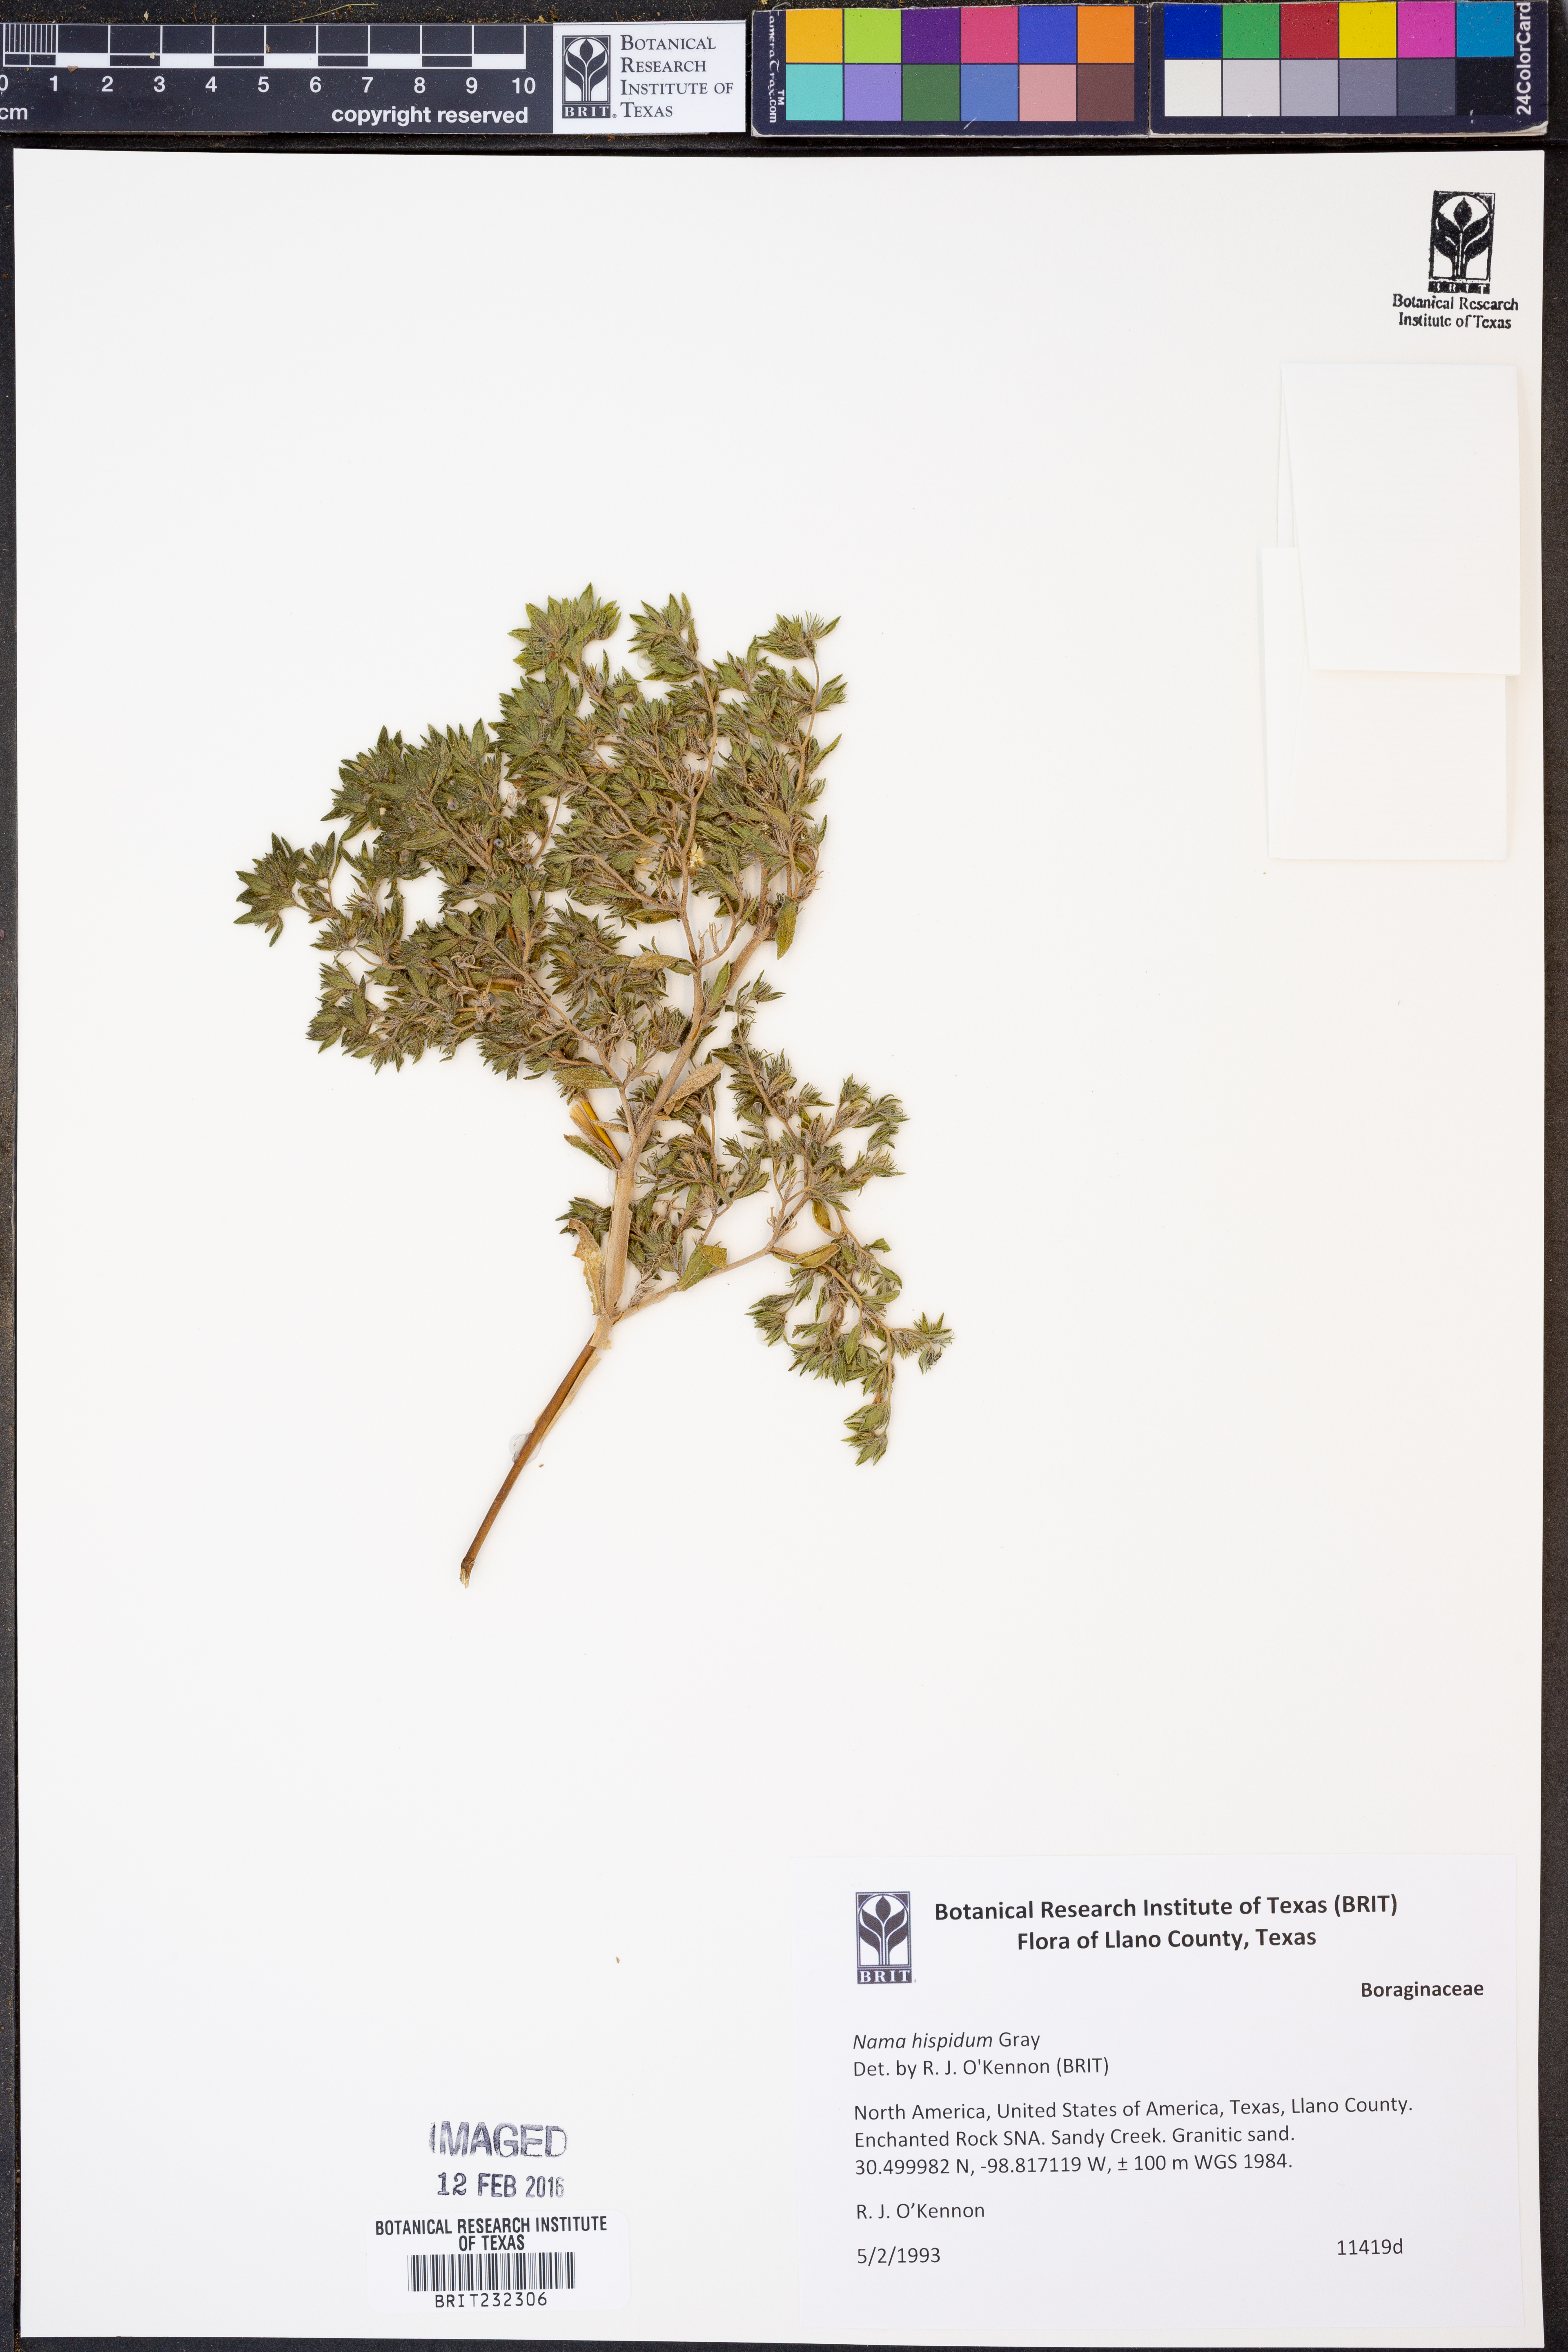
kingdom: Plantae
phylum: Tracheophyta
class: Magnoliopsida
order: Boraginales
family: Namaceae
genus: Nama
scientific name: Nama hispida
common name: Bristly nama
